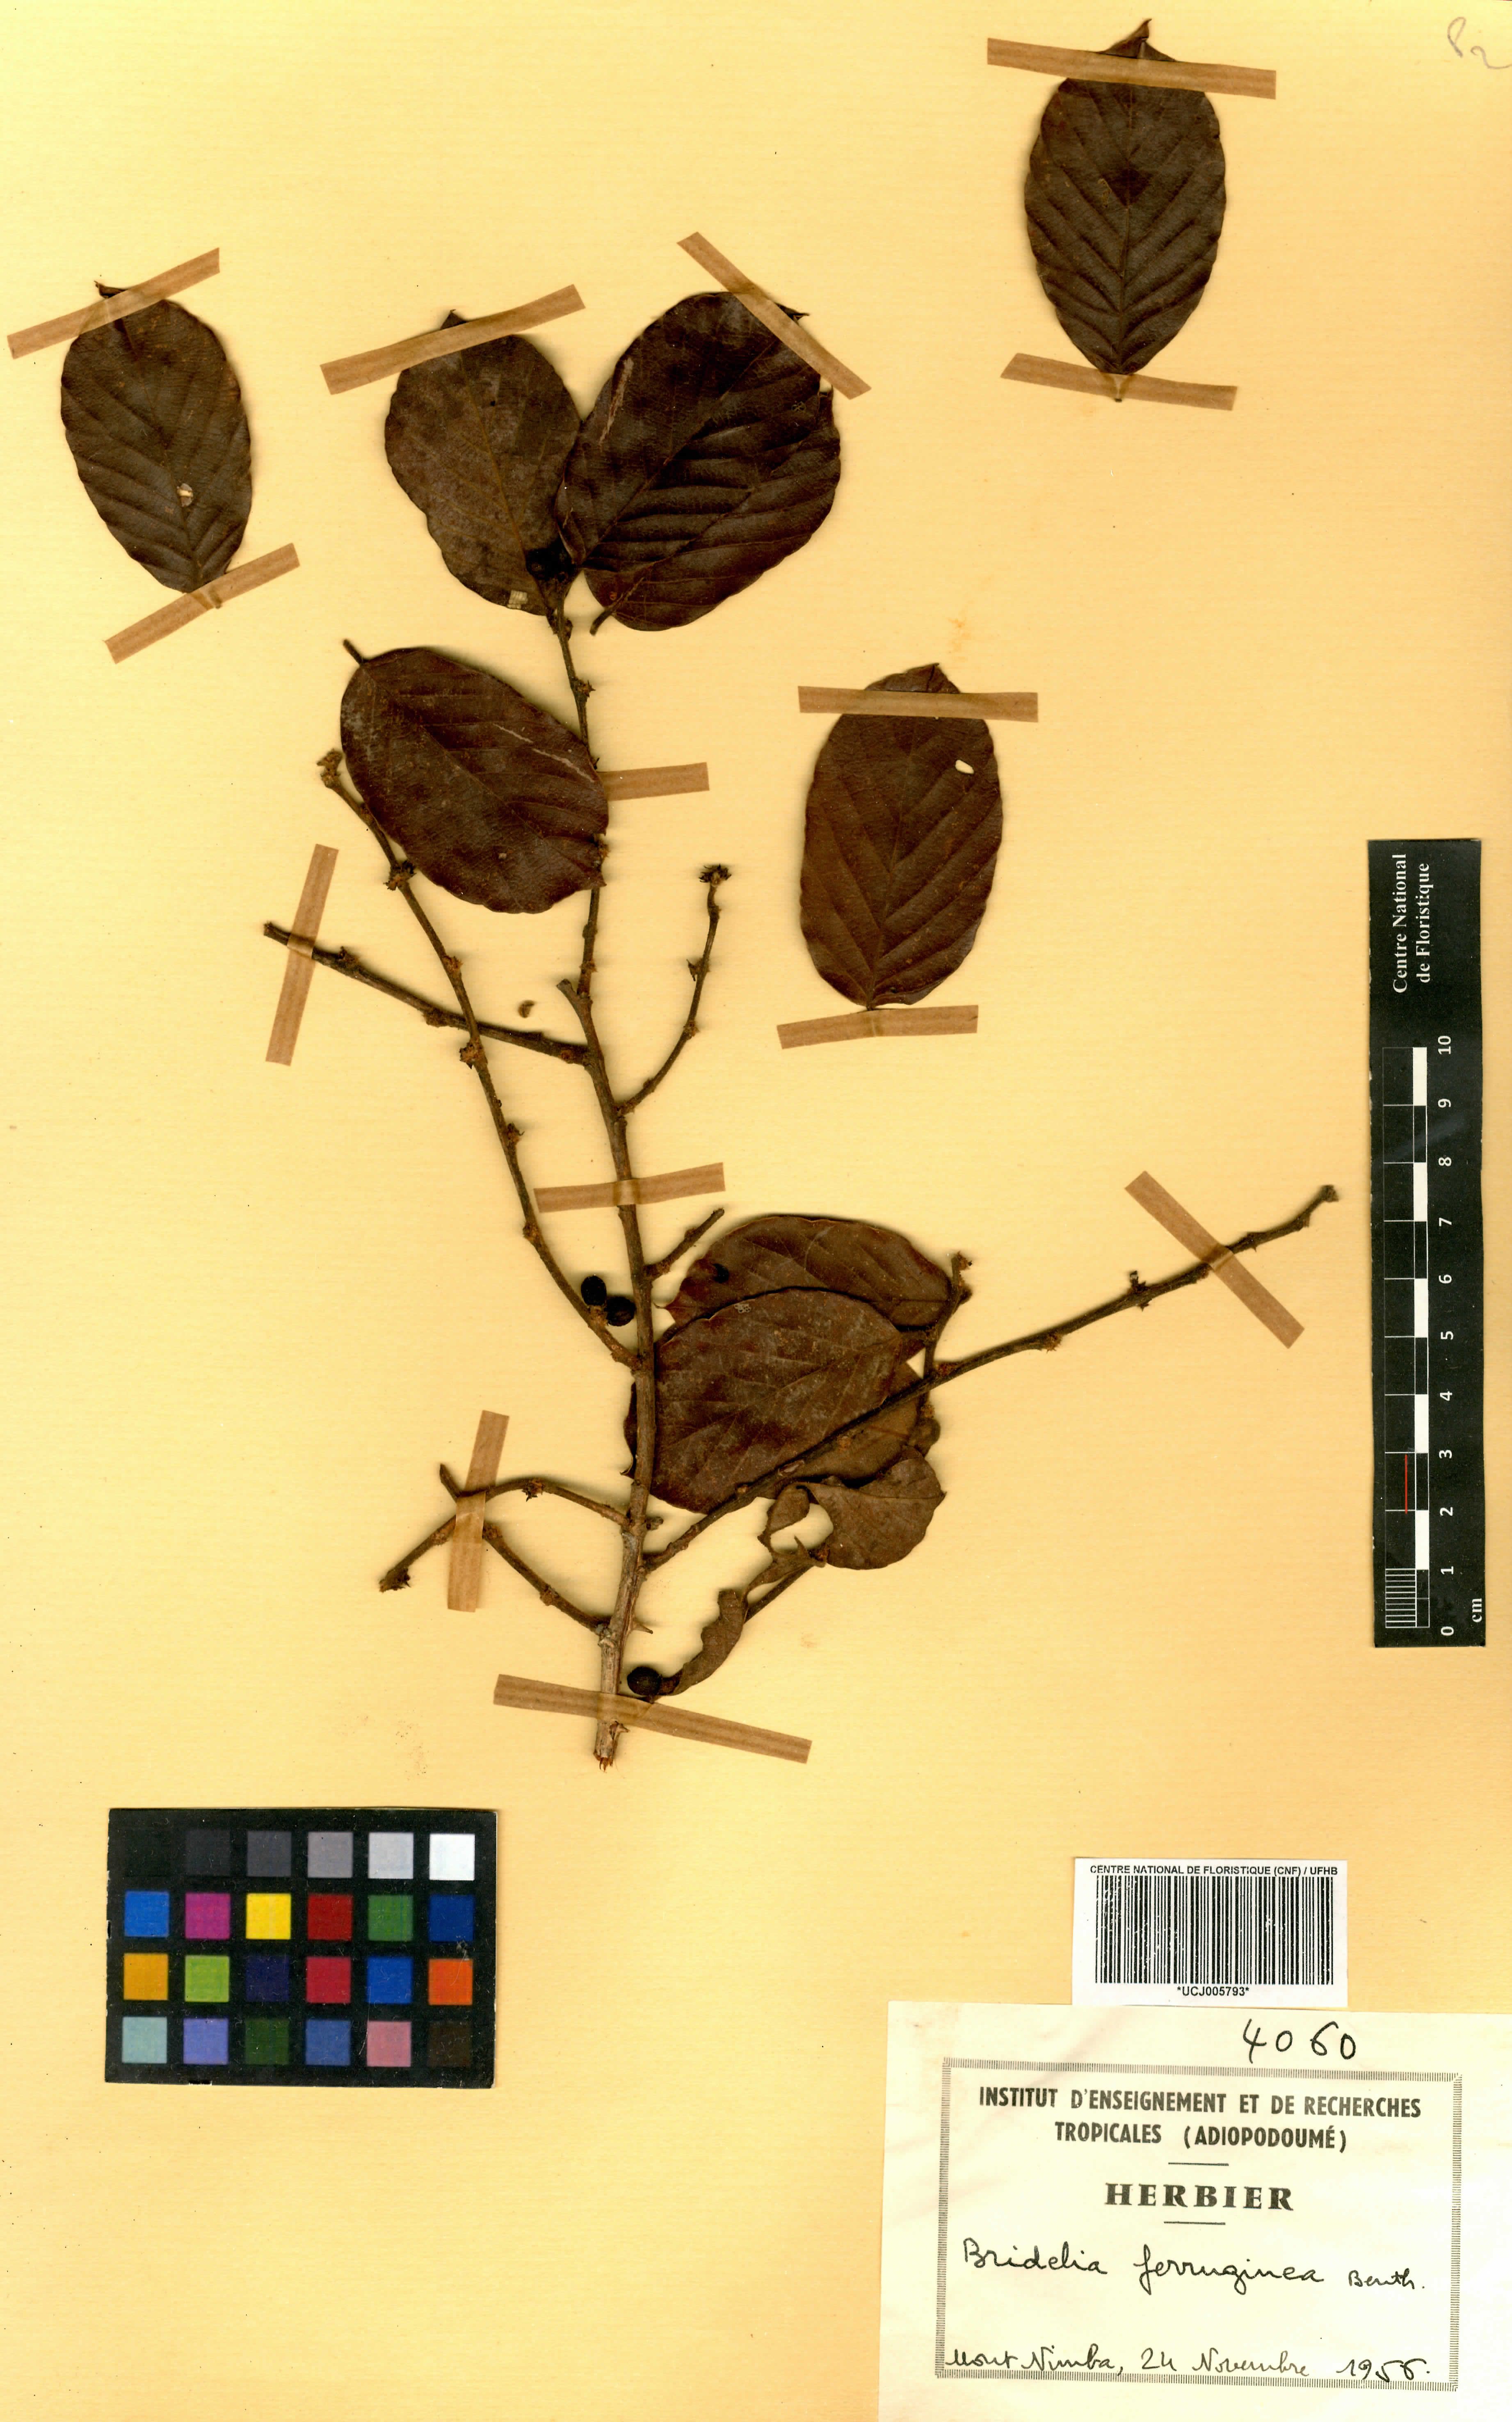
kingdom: Plantae
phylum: Tracheophyta
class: Magnoliopsida
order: Malpighiales
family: Phyllanthaceae
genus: Bridelia
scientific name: Bridelia ferruginea
